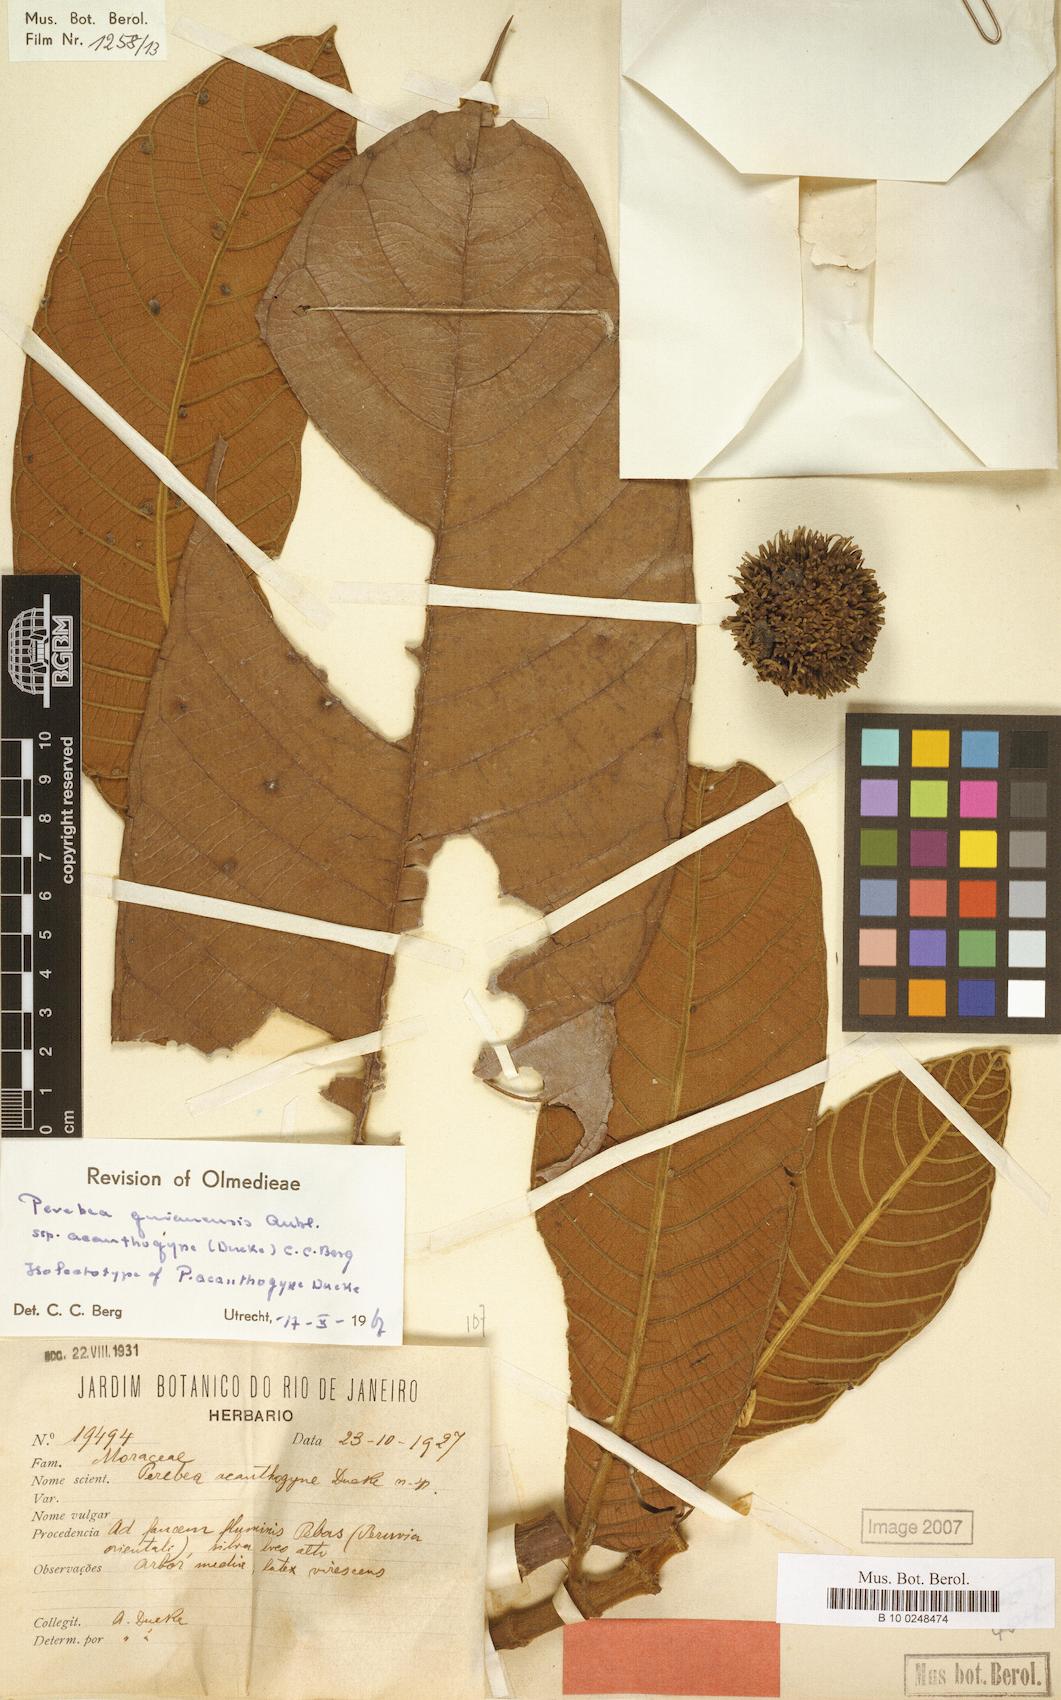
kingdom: Plantae
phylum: Tracheophyta
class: Magnoliopsida
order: Rosales
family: Moraceae
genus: Perebea
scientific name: Perebea guianensis
